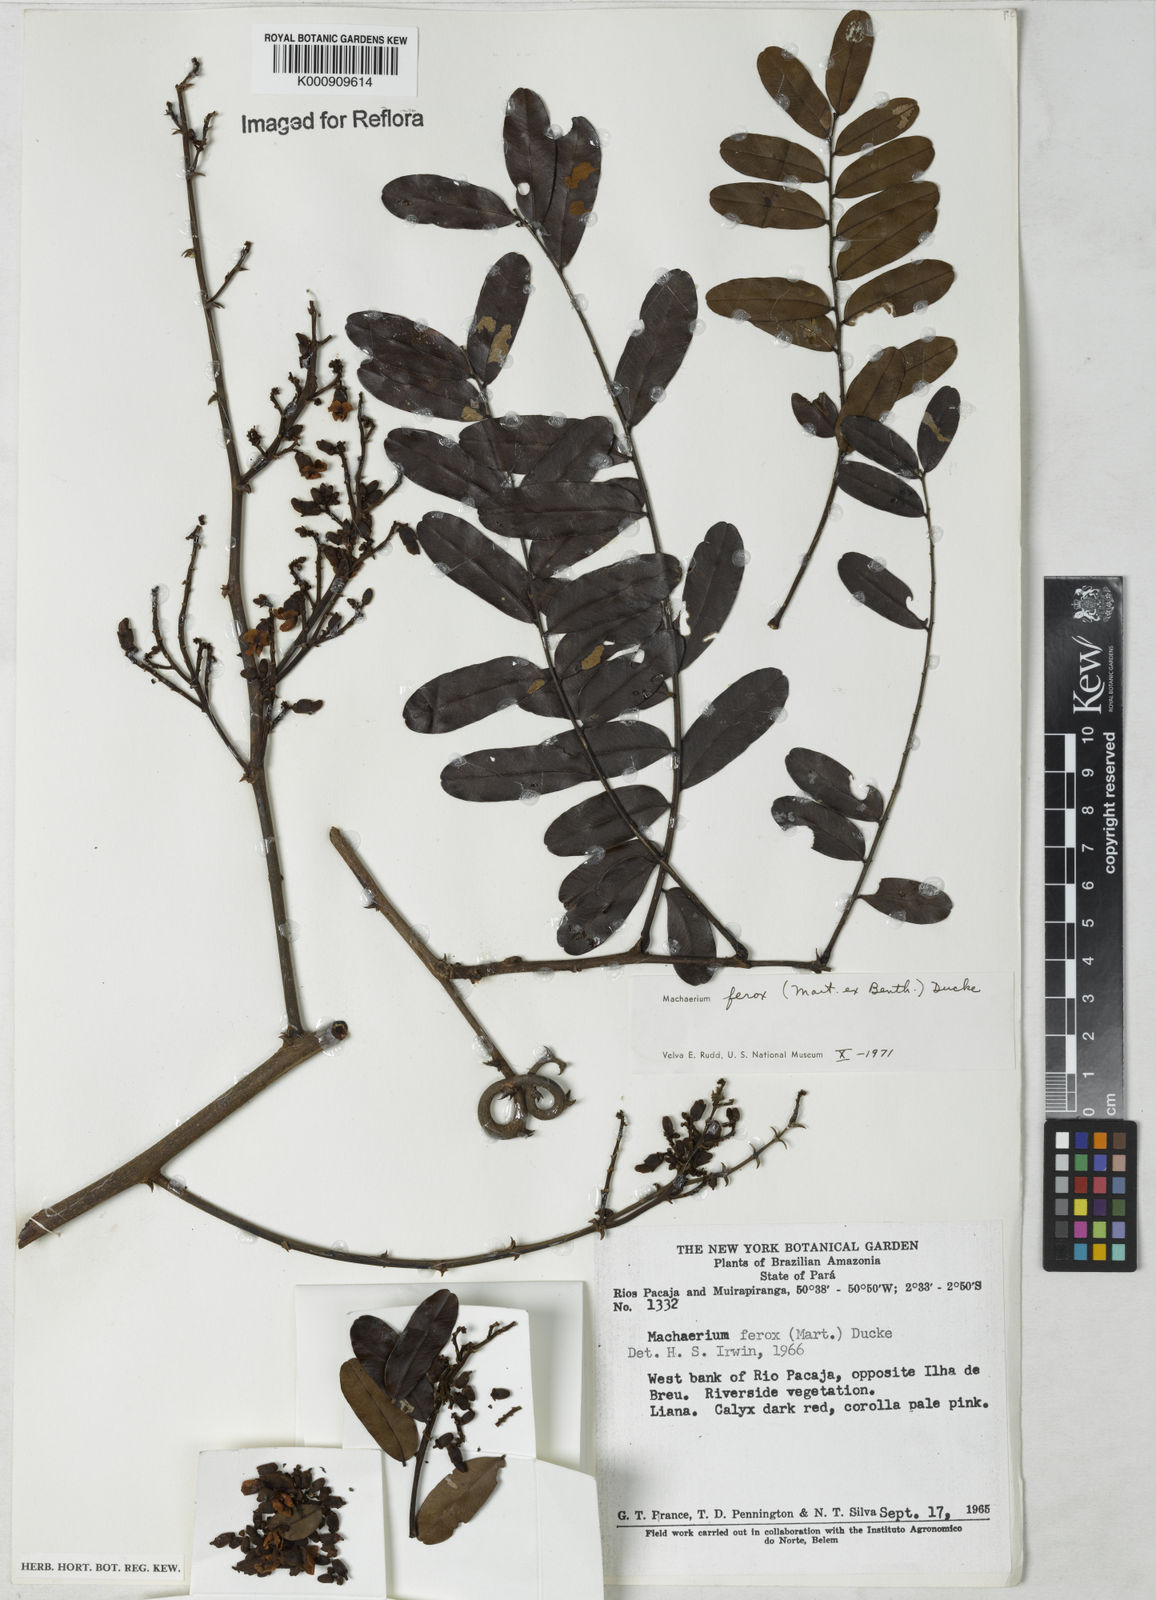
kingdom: Plantae
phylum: Tracheophyta
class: Magnoliopsida
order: Fabales
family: Fabaceae
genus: Machaerium
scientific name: Machaerium ferox
